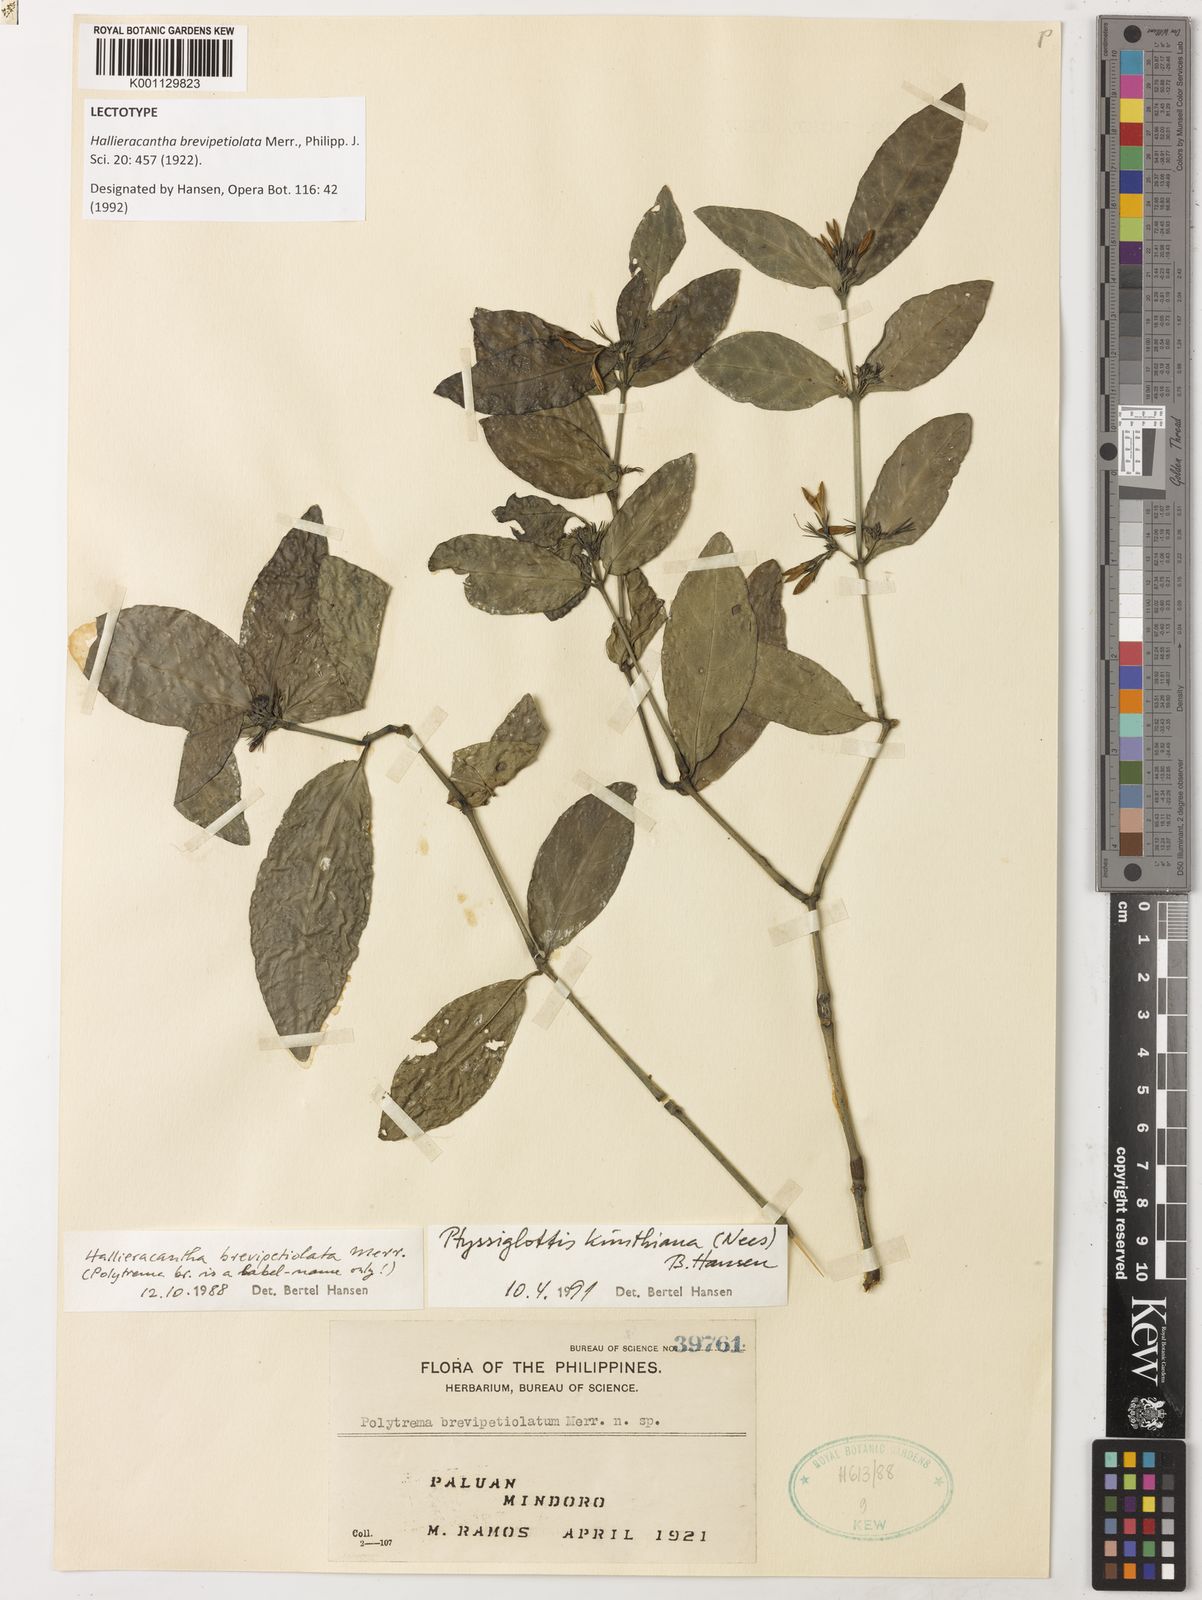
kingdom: Plantae
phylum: Tracheophyta
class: Magnoliopsida
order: Lamiales
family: Acanthaceae
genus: Ptyssiglottis
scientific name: Ptyssiglottis kunthiana
